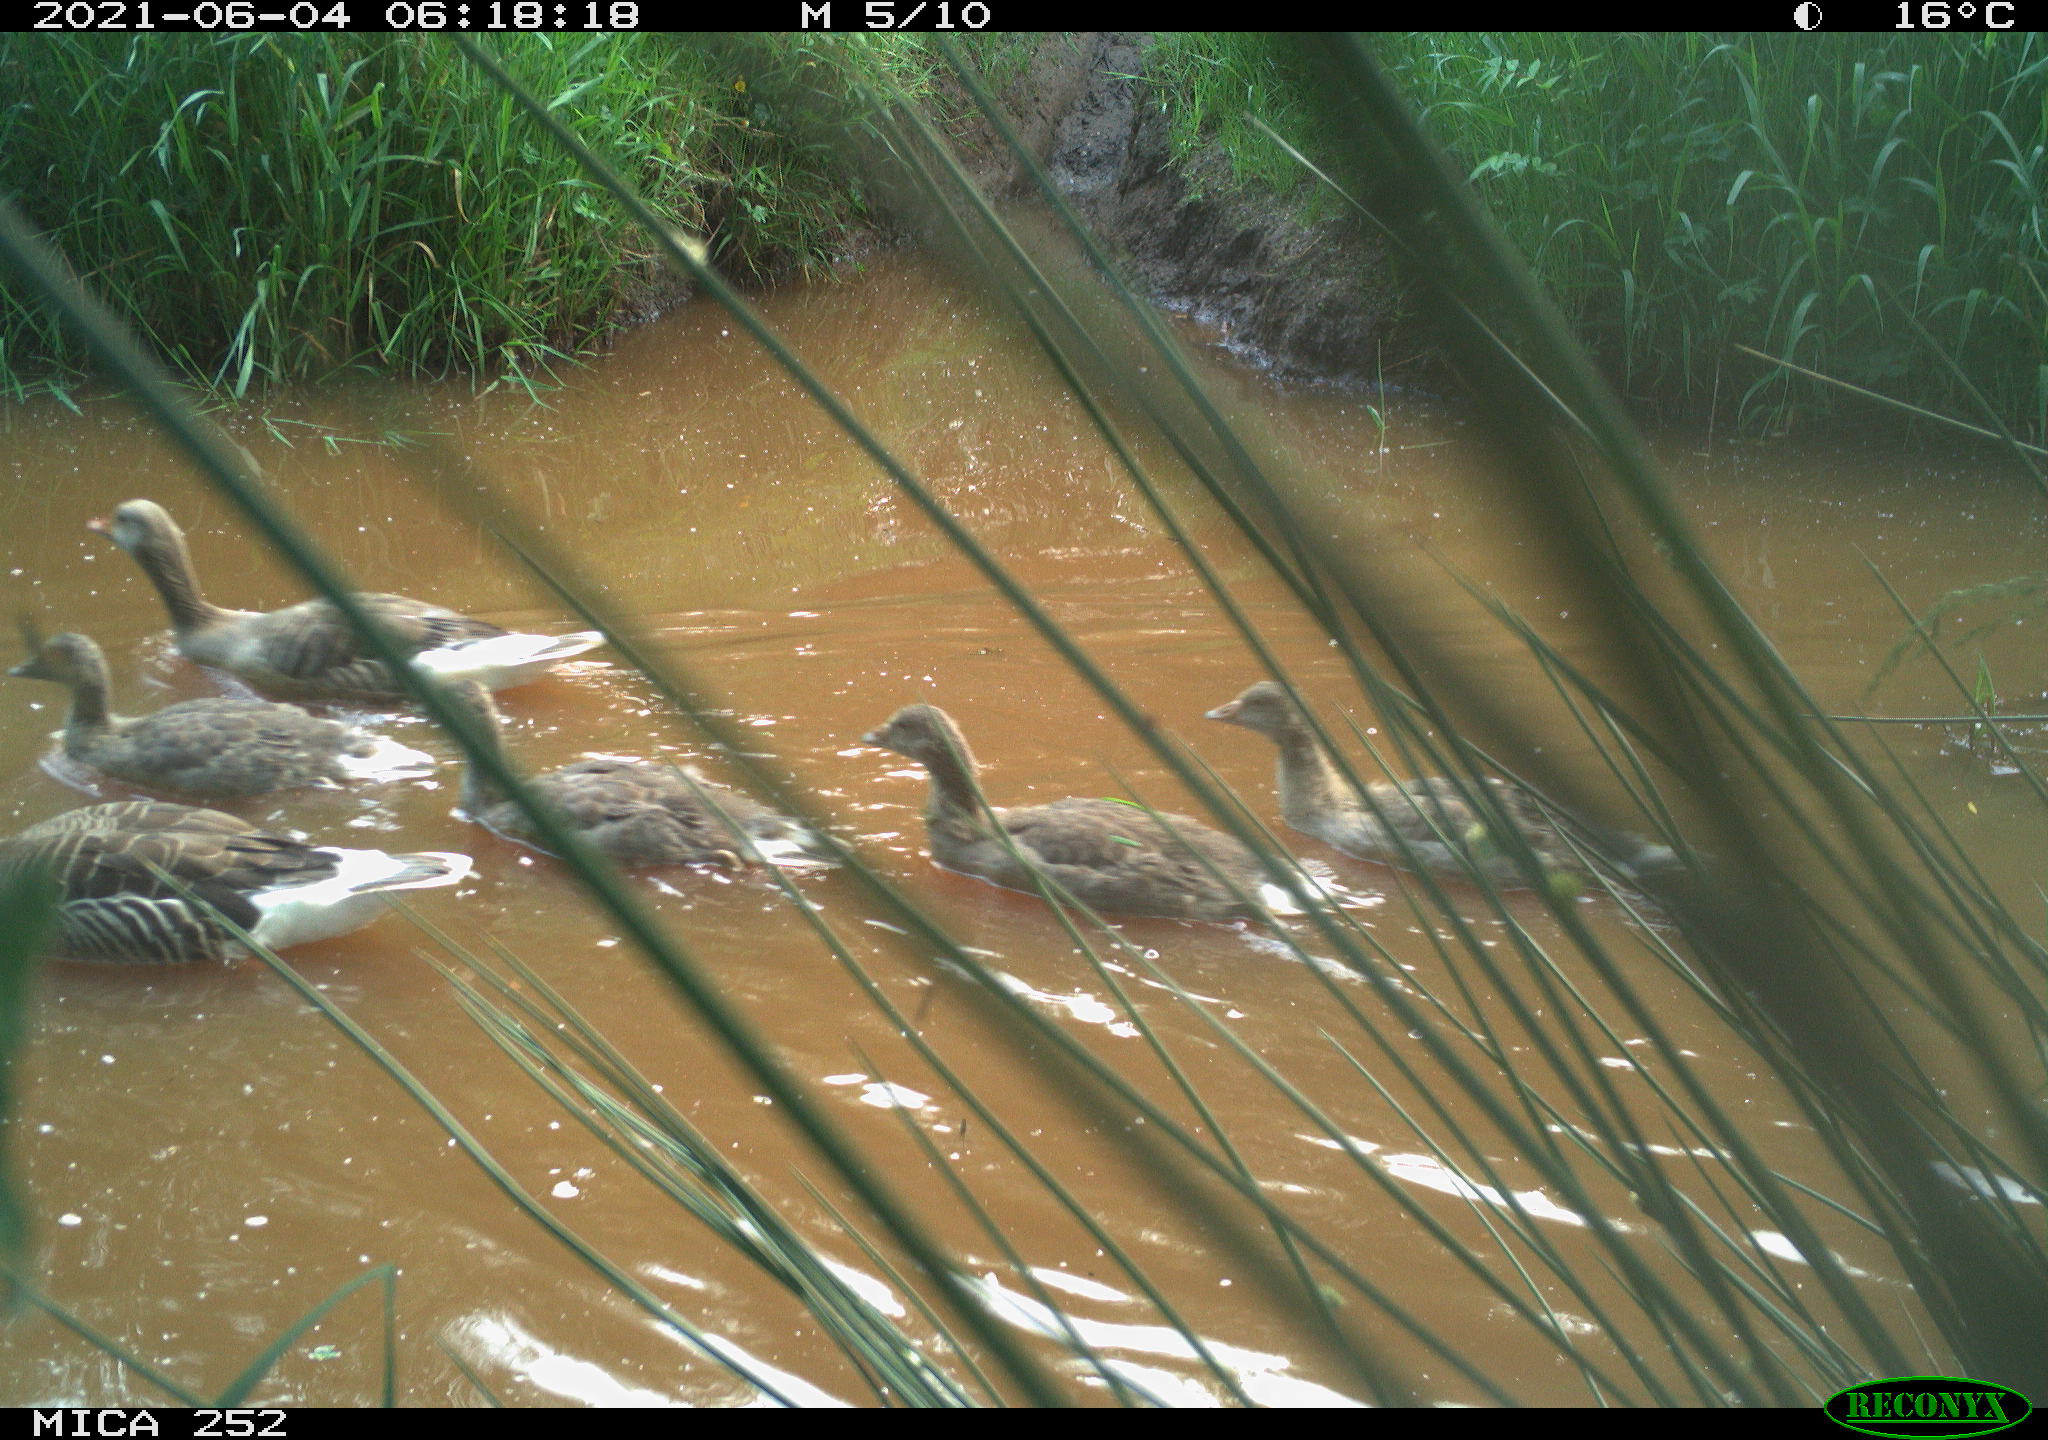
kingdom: Animalia
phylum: Chordata
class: Aves
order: Anseriformes
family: Anatidae
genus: Anser
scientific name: Anser anser
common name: Greylag goose
